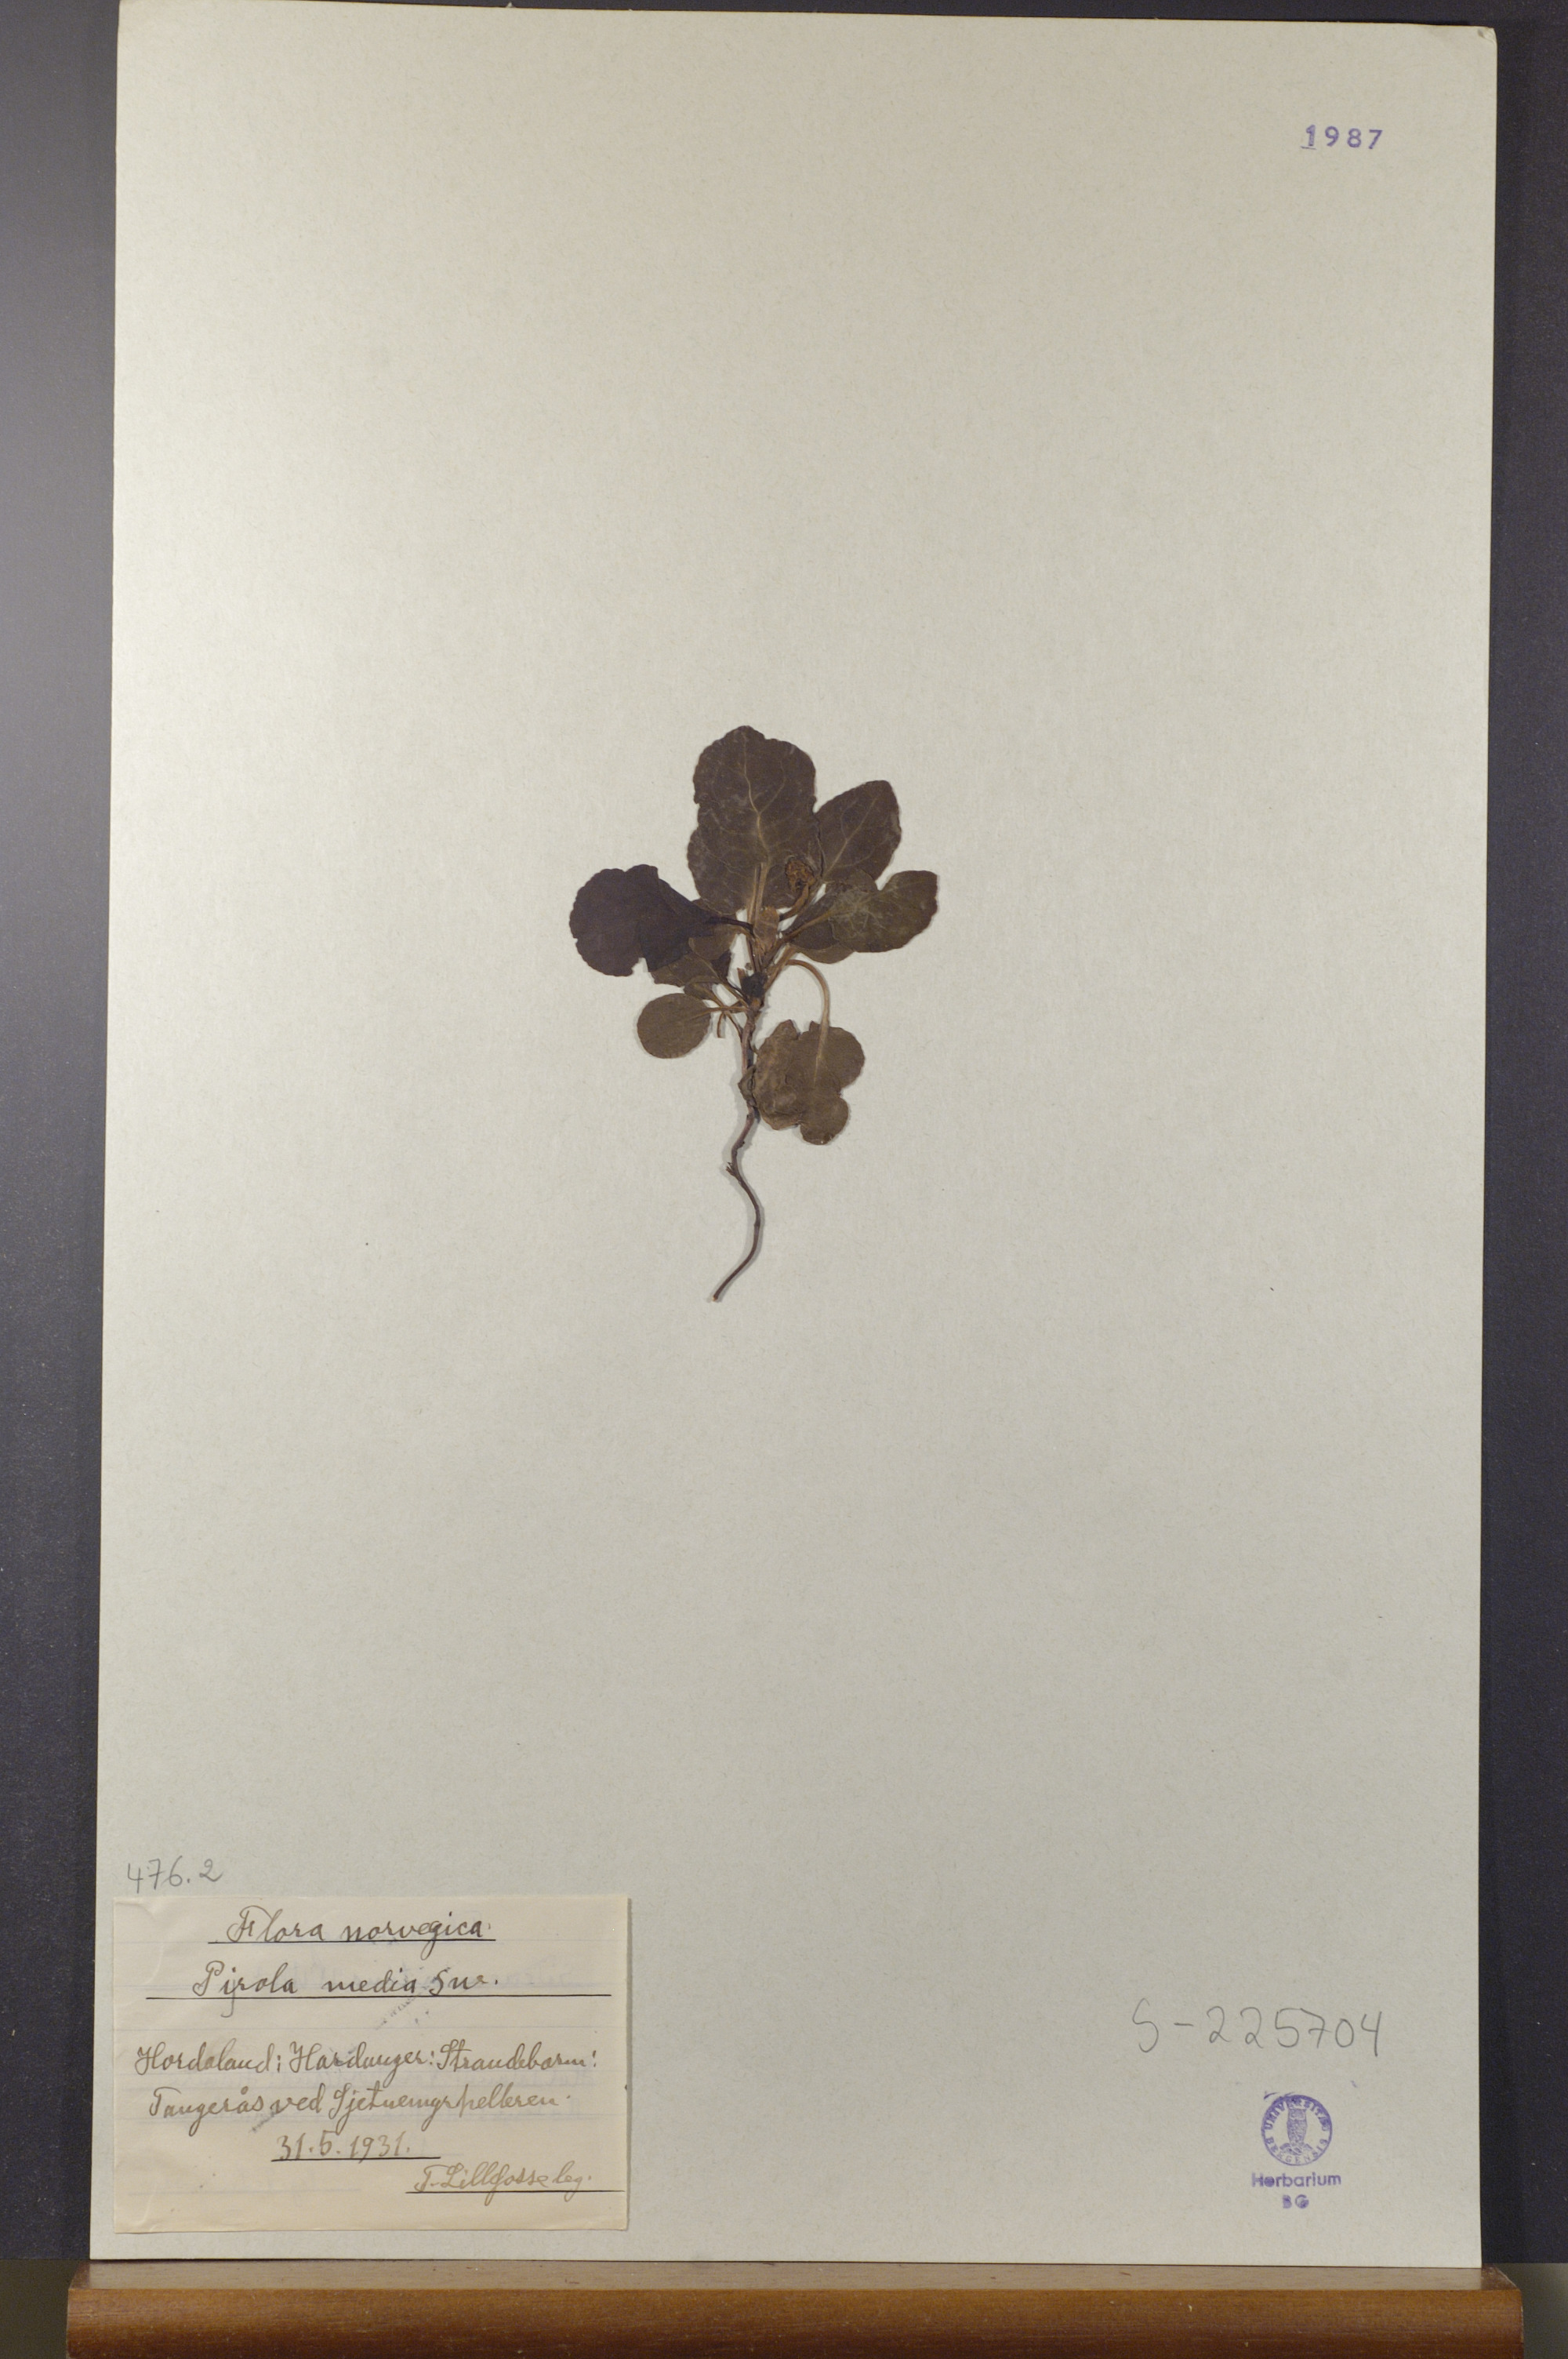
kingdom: Plantae
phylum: Tracheophyta
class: Magnoliopsida
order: Ericales
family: Ericaceae
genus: Pyrola
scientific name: Pyrola media
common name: Intermediate wintergreen
